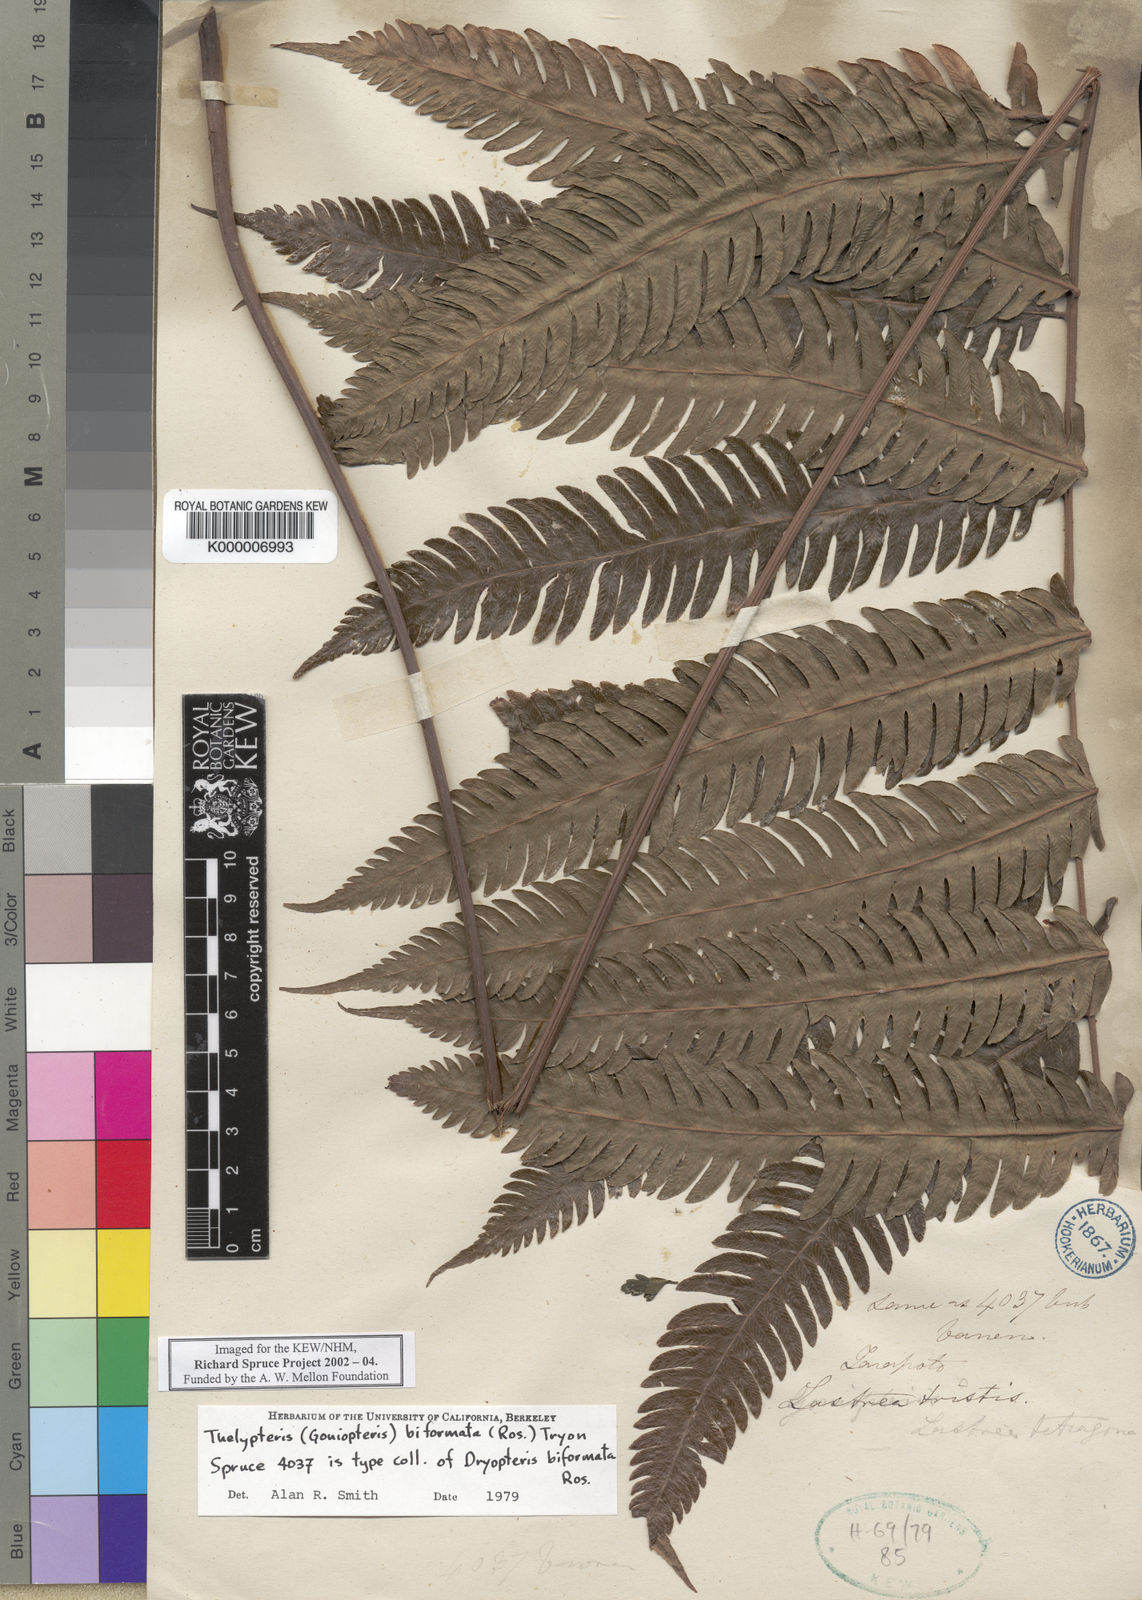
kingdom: Plantae
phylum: Tracheophyta
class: Polypodiopsida
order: Polypodiales
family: Thelypteridaceae
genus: Goniopteris
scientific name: Goniopteris biformata
